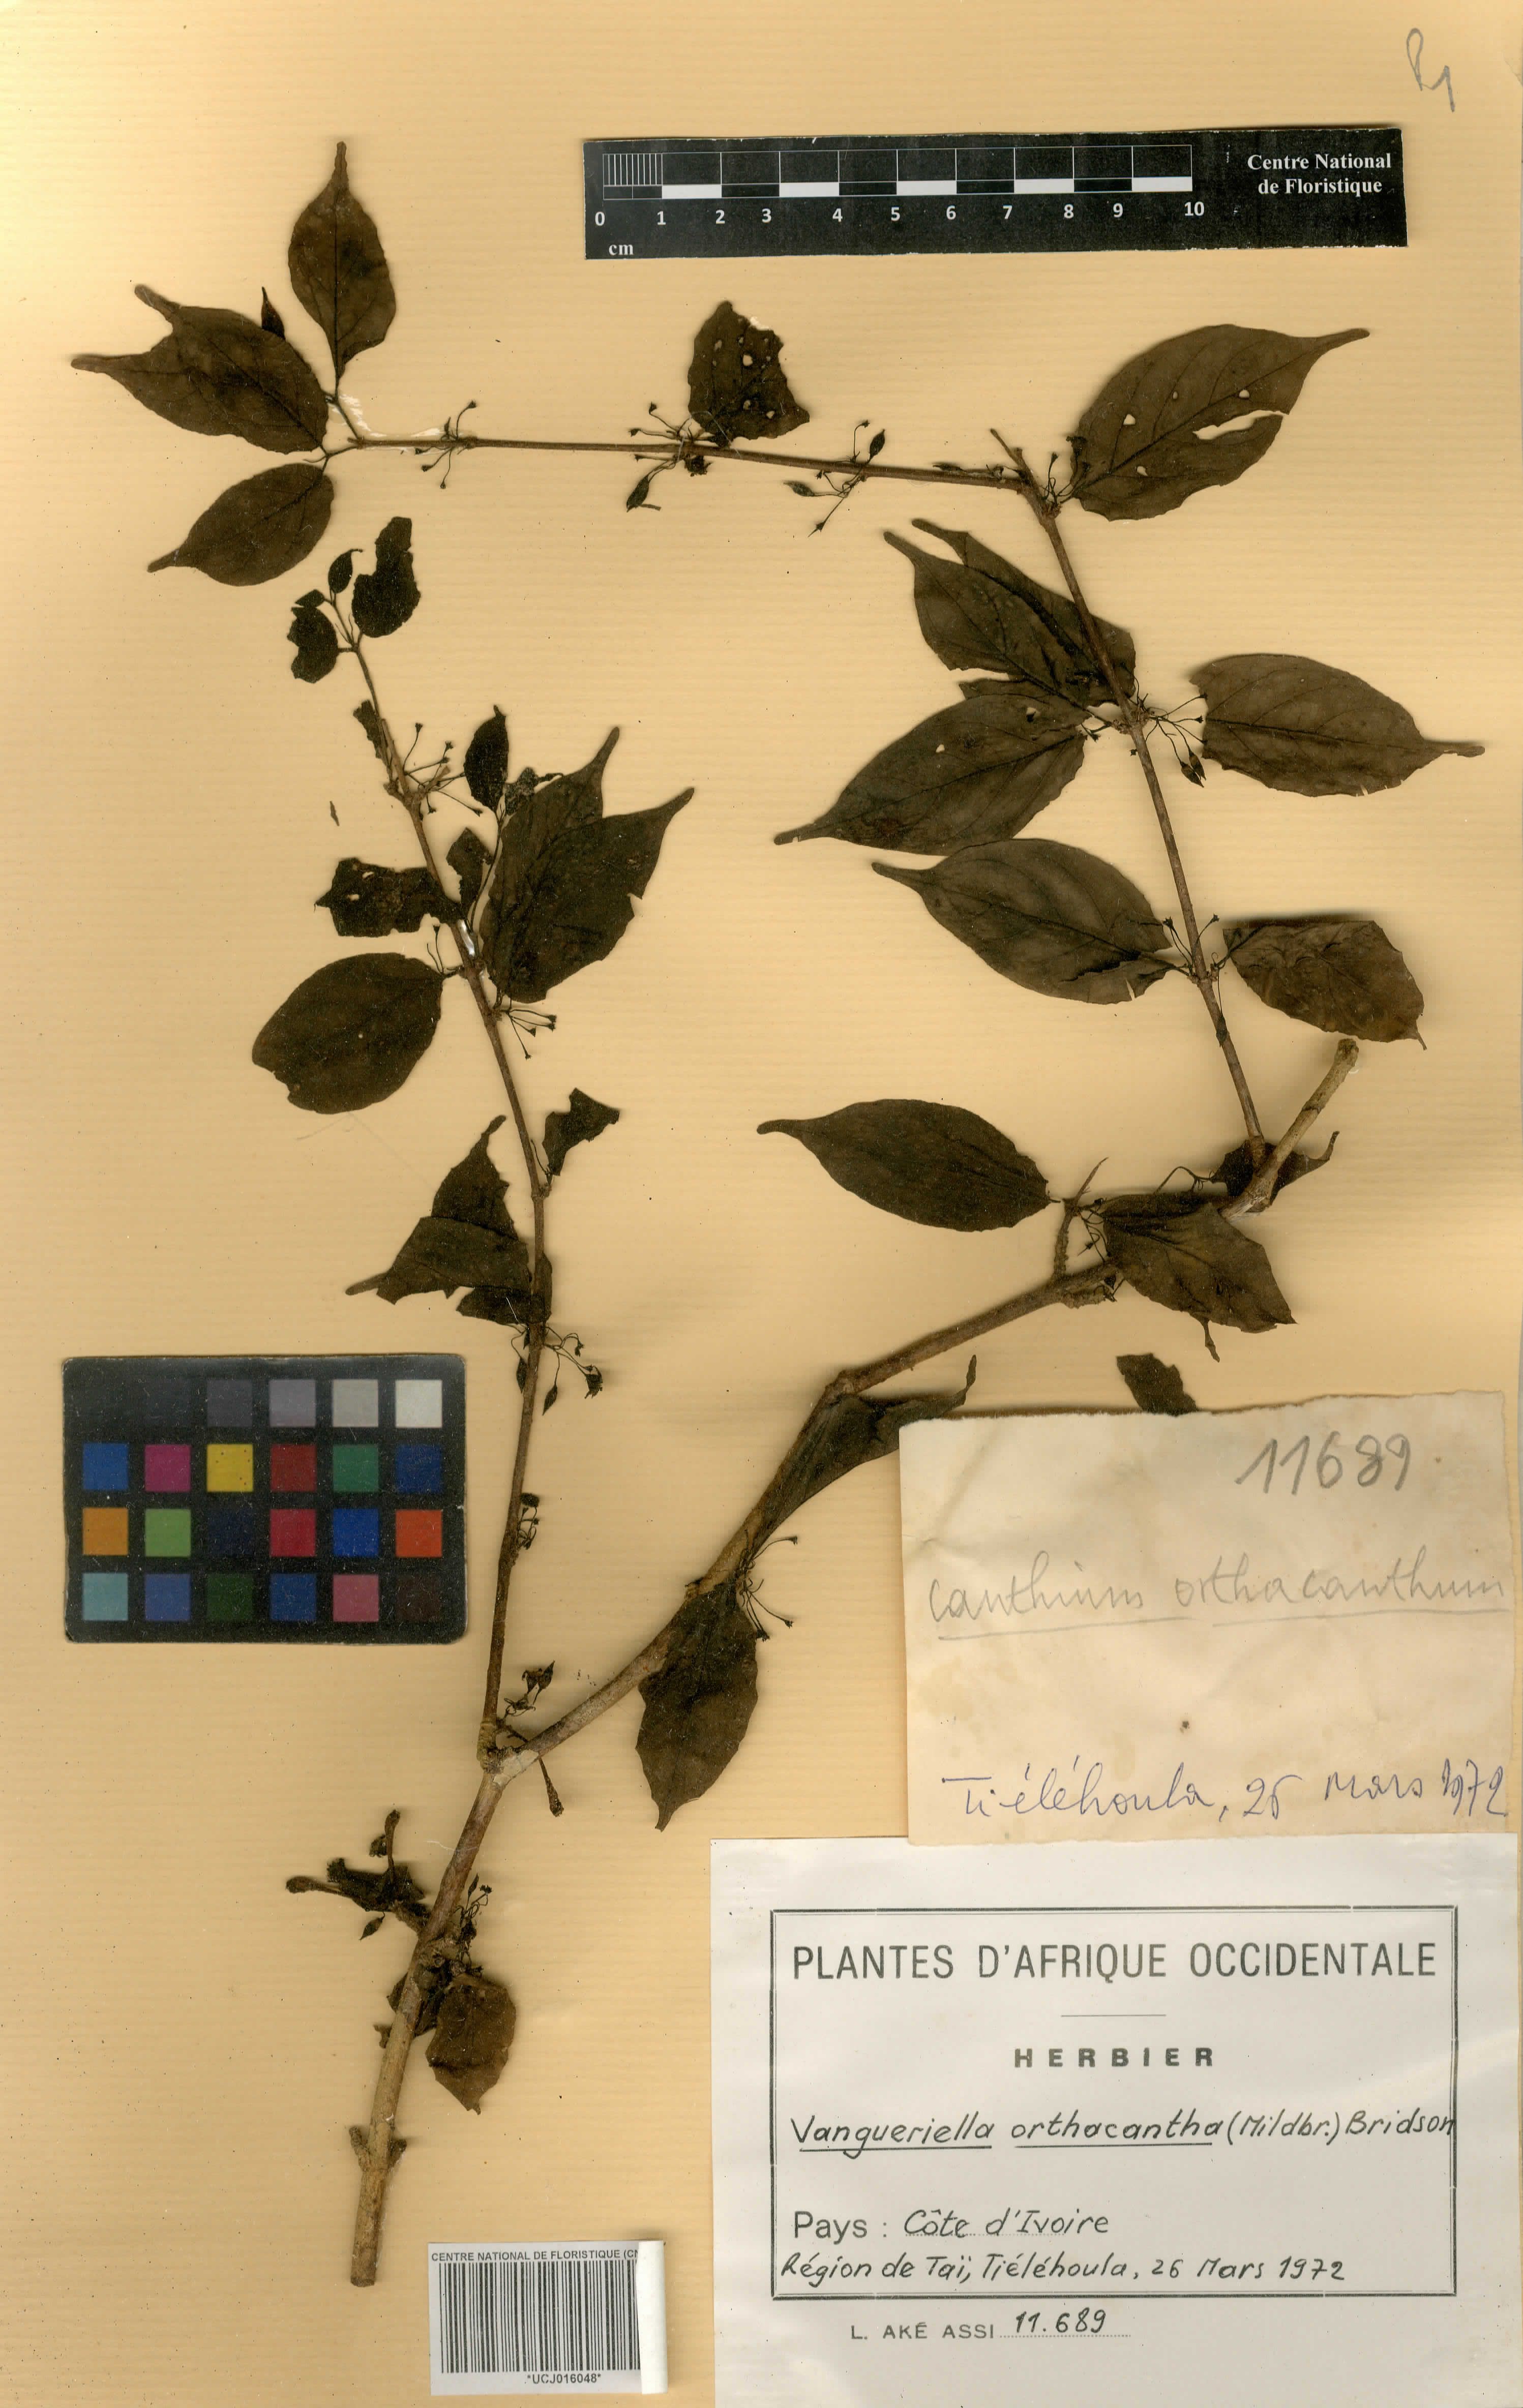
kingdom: Plantae
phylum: Tracheophyta
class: Magnoliopsida
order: Gentianales
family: Rubiaceae
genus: Vangueriella
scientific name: Vangueriella orthacantha
